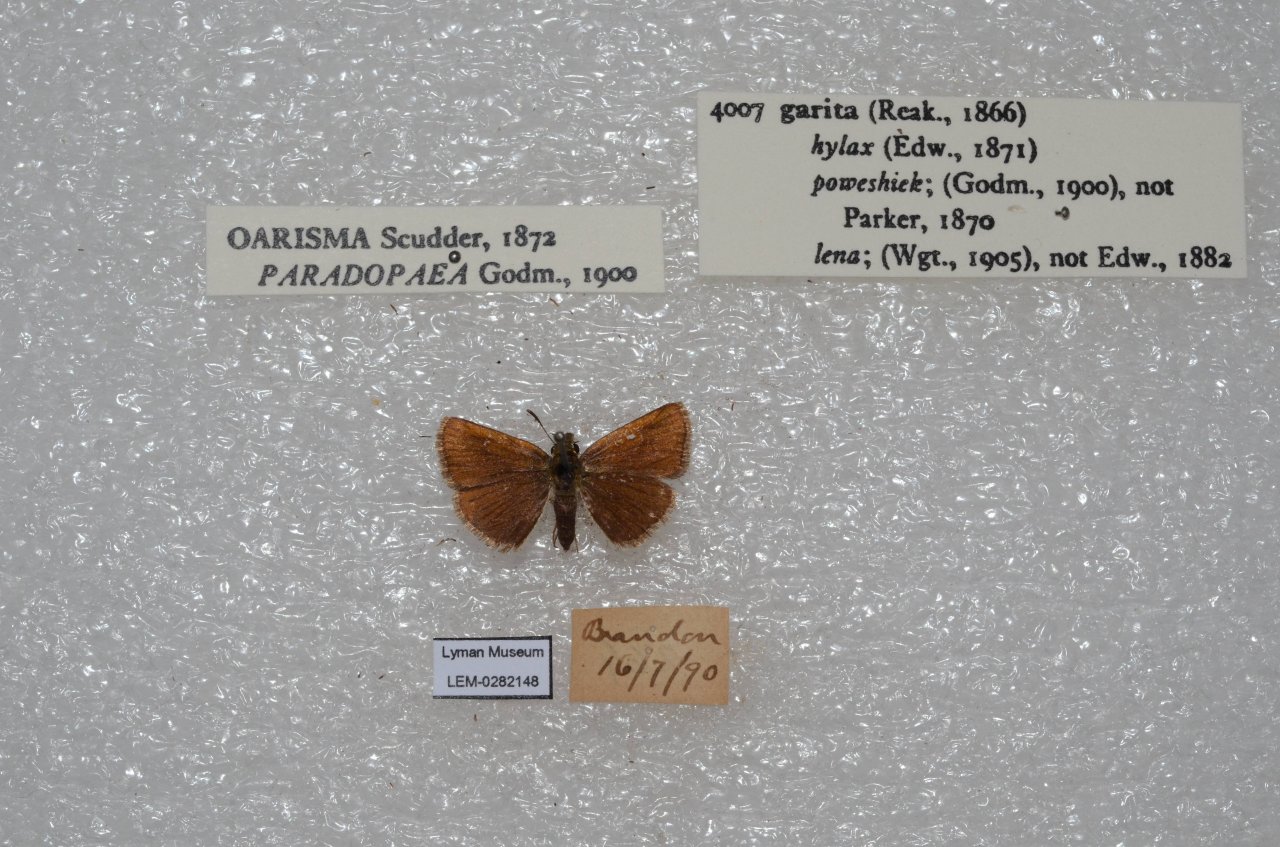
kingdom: Animalia
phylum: Arthropoda
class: Insecta
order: Lepidoptera
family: Hesperiidae
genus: Oarisma
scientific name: Oarisma garita
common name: Garita Skipperling
